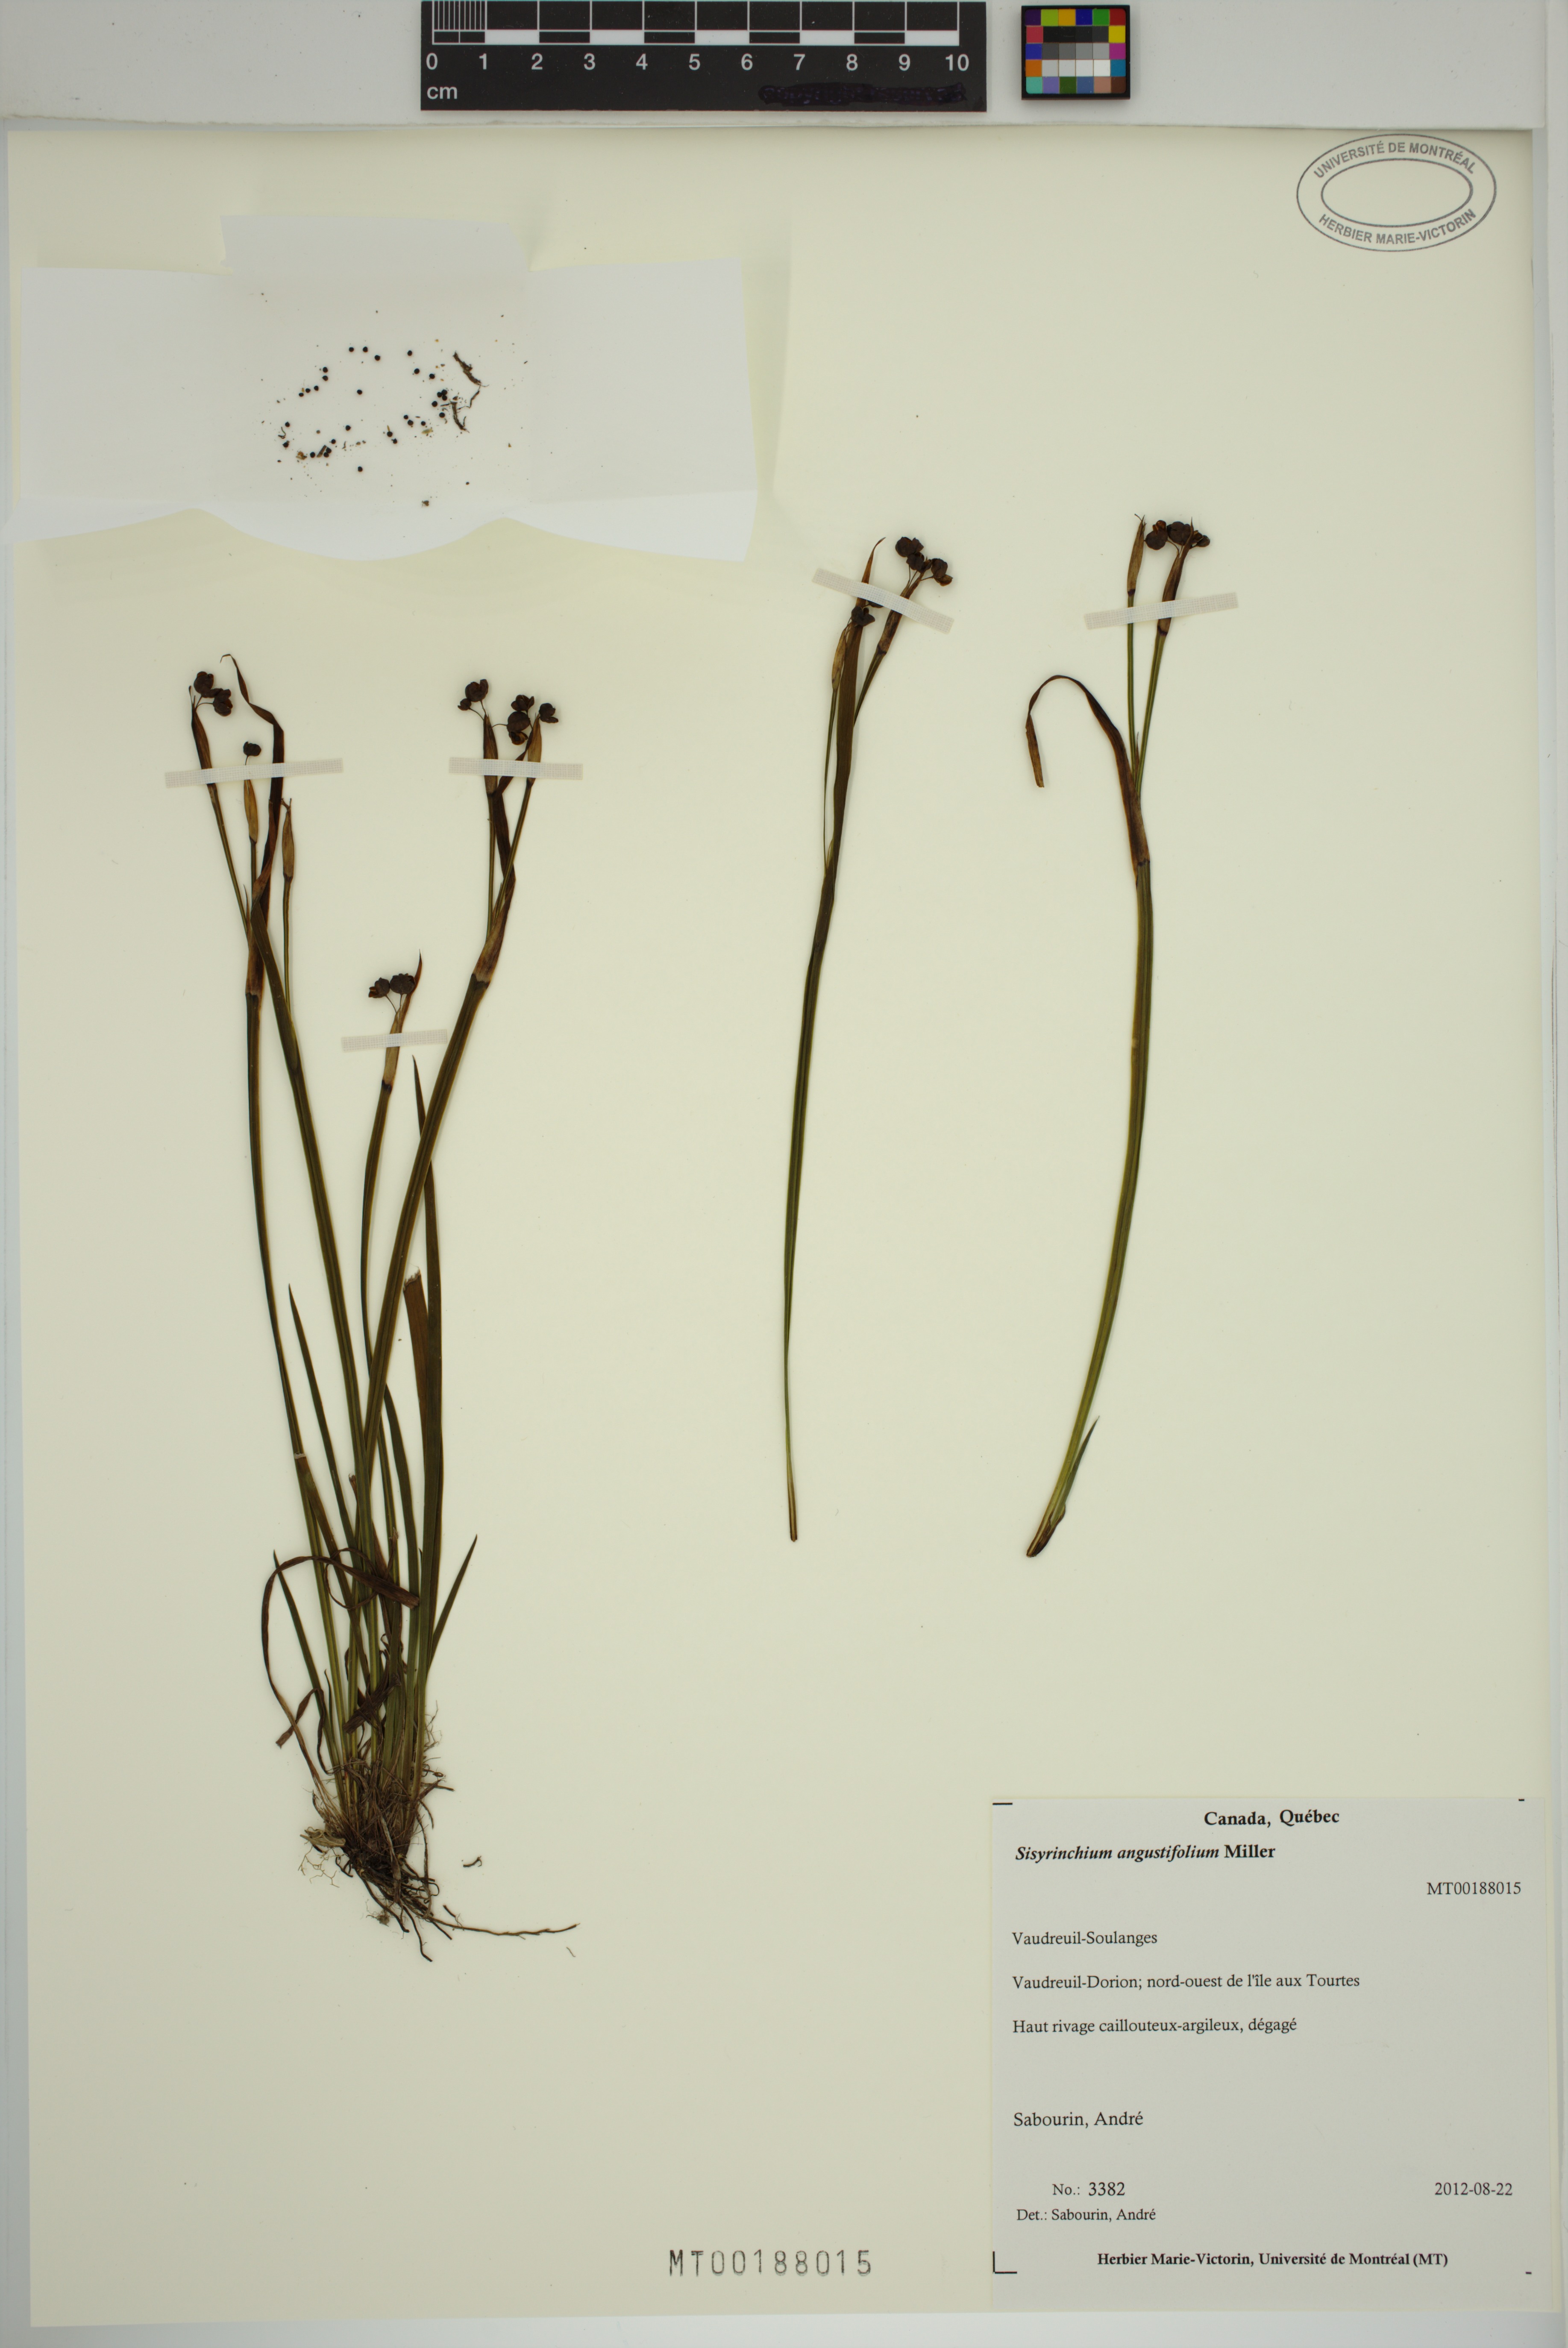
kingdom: Plantae
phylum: Tracheophyta
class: Liliopsida
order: Asparagales
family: Iridaceae
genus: Sisyrinchium
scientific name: Sisyrinchium angustifolium
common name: Narrow-leaf blue-eyed-grass
